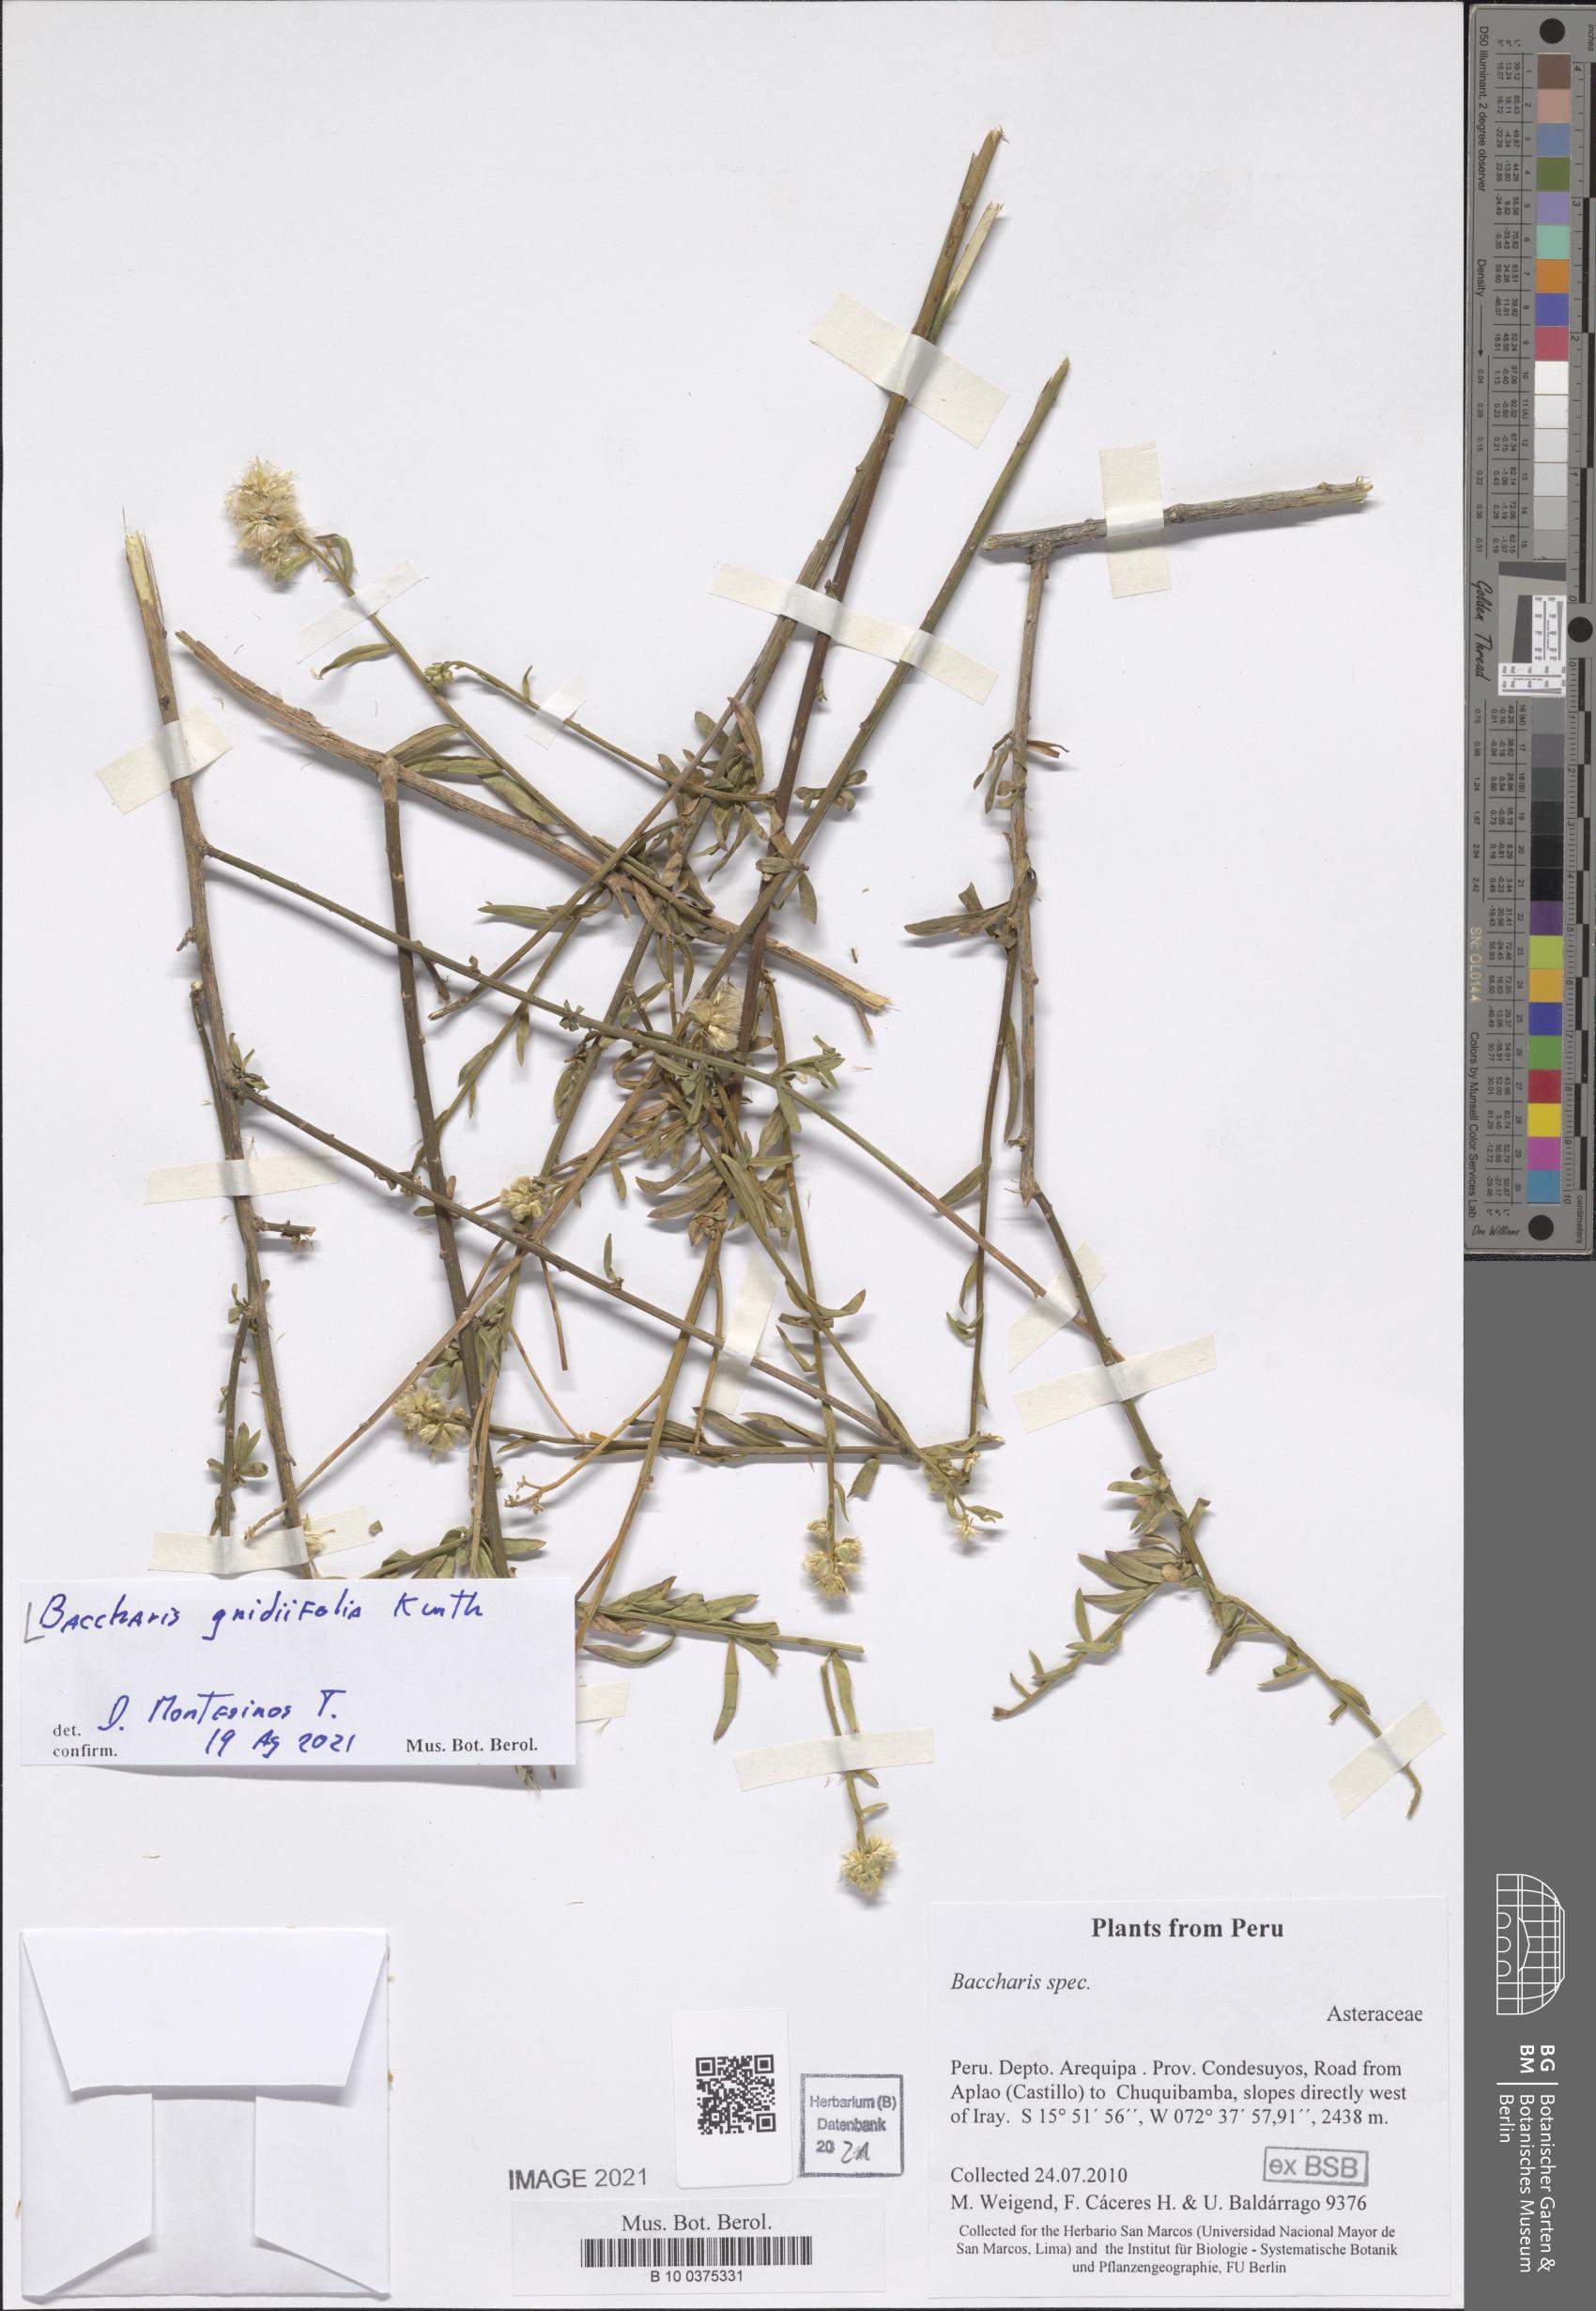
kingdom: Plantae
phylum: Tracheophyta
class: Magnoliopsida
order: Asterales
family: Asteraceae
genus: Baccharis
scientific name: Baccharis gnidiifolia
